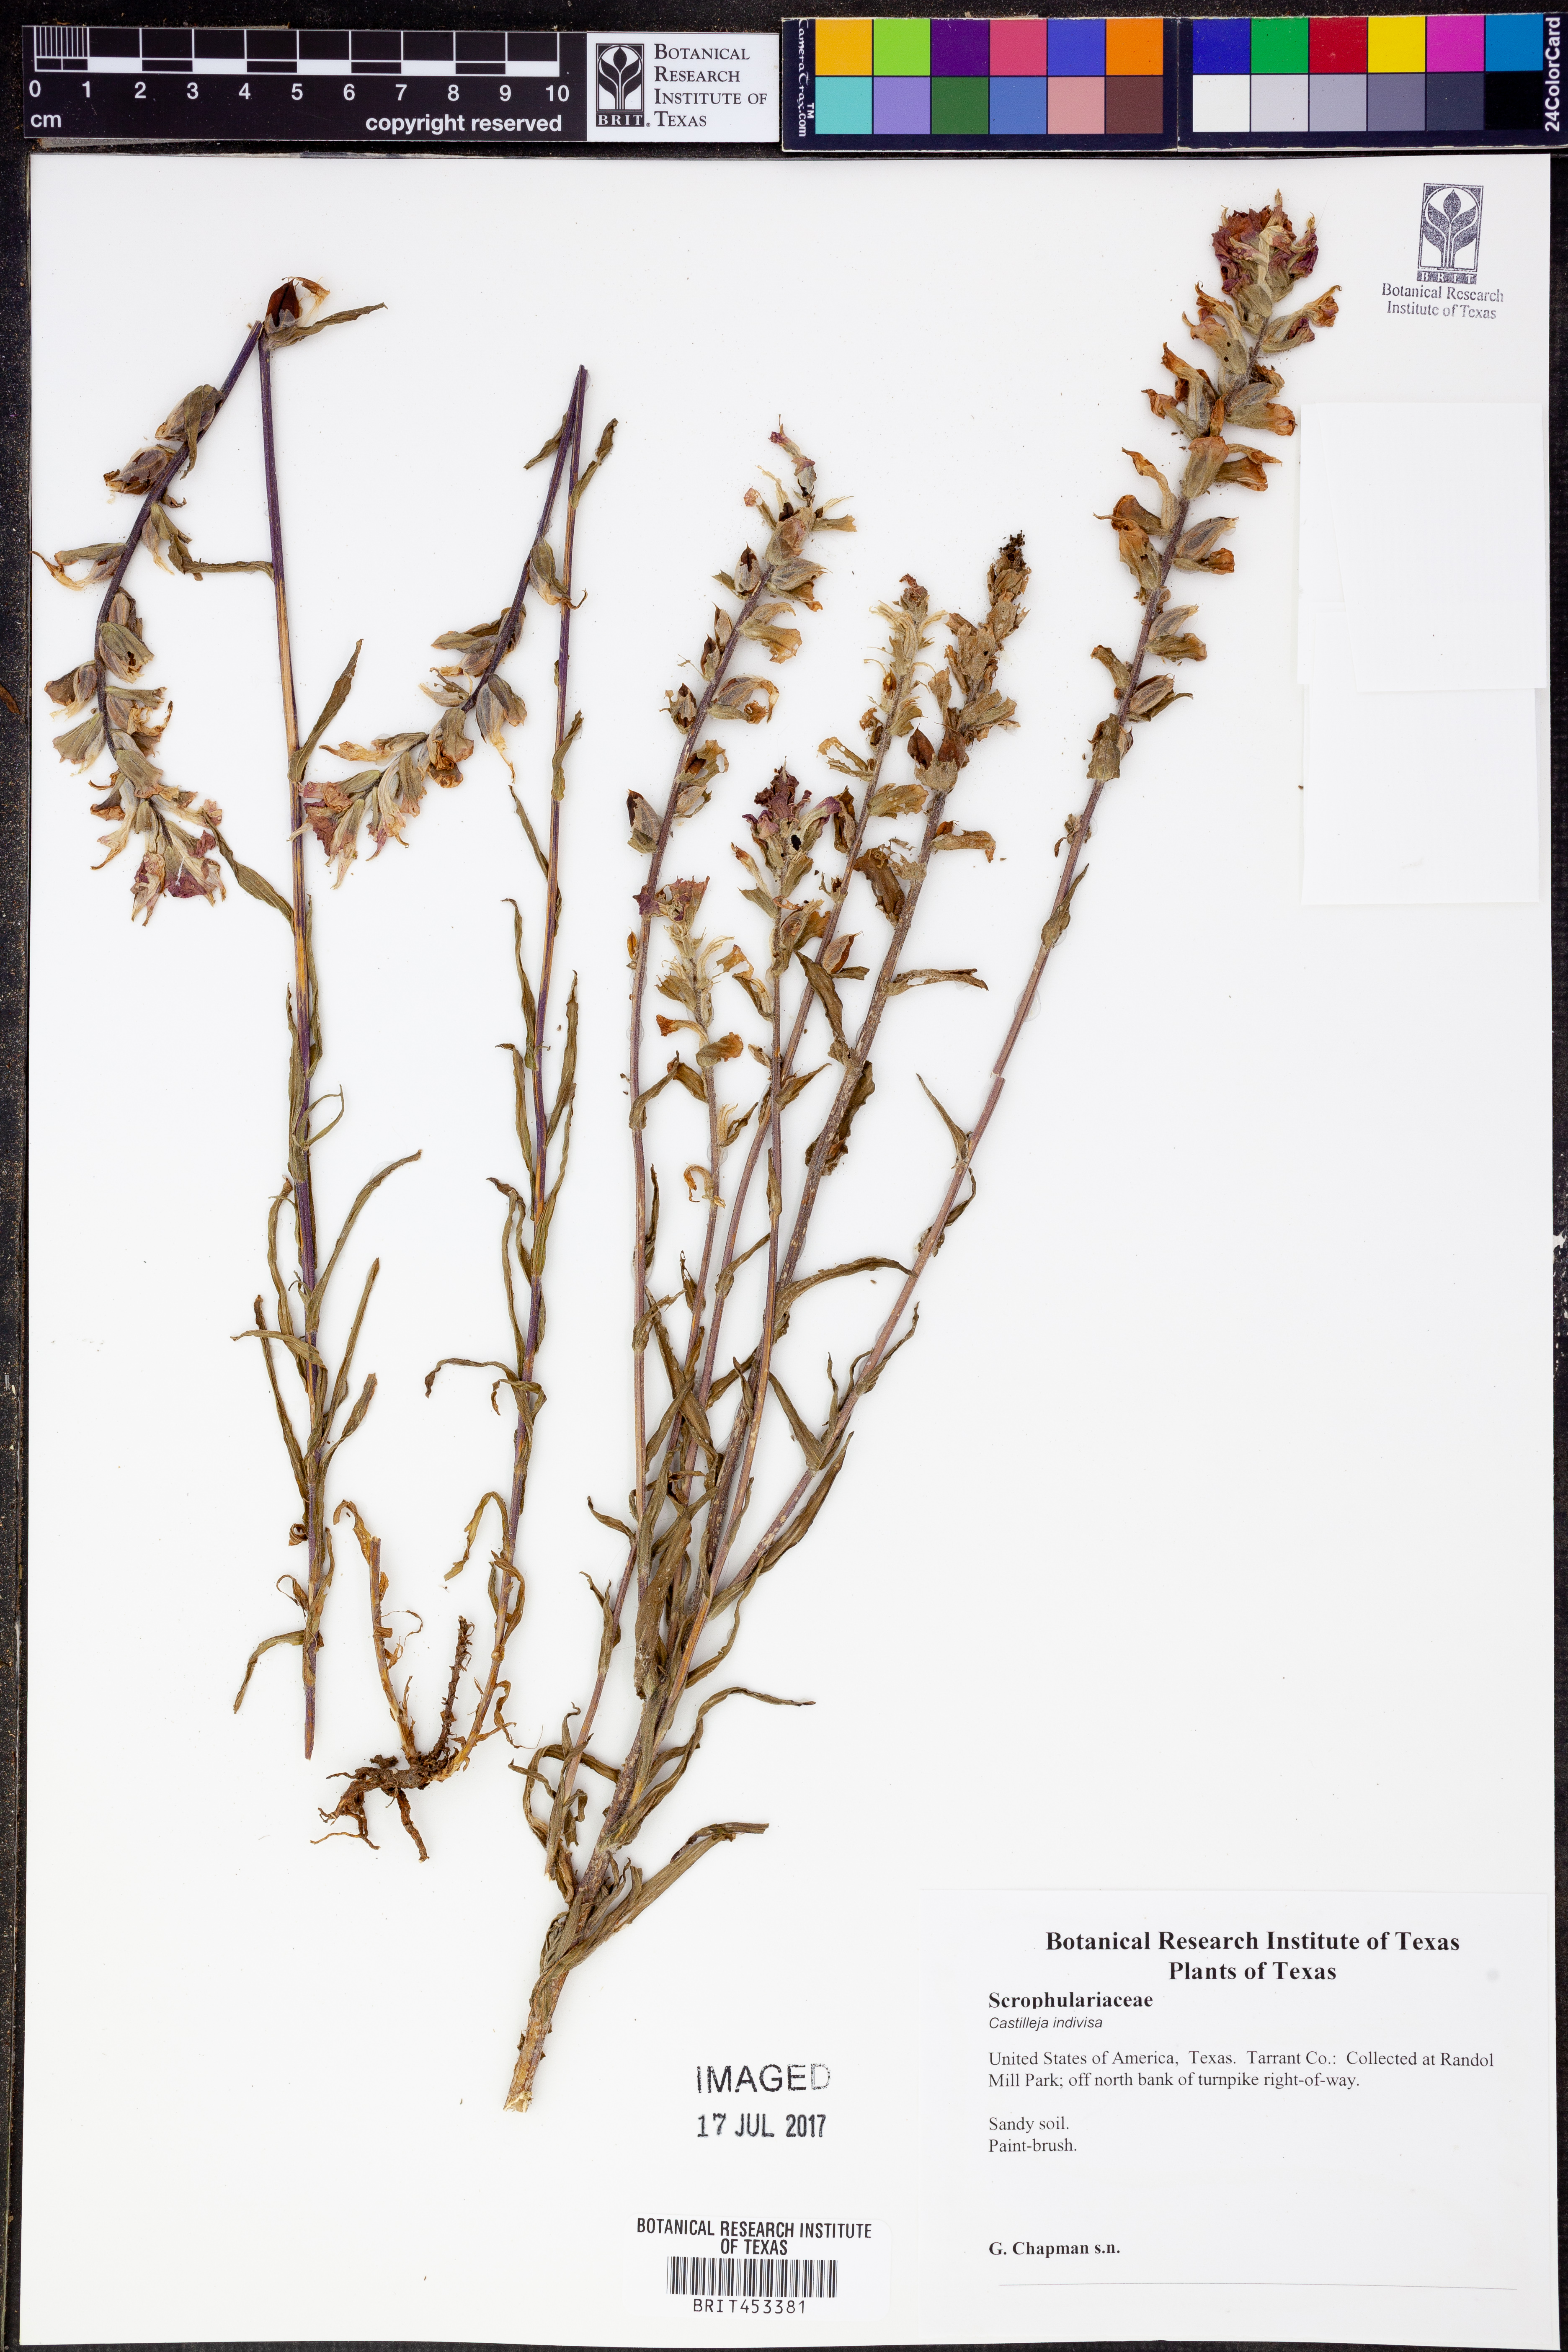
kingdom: Plantae
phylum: Tracheophyta
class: Magnoliopsida
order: Lamiales
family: Orobanchaceae
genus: Castilleja
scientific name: Castilleja indivisa
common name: Texas paintbrush
